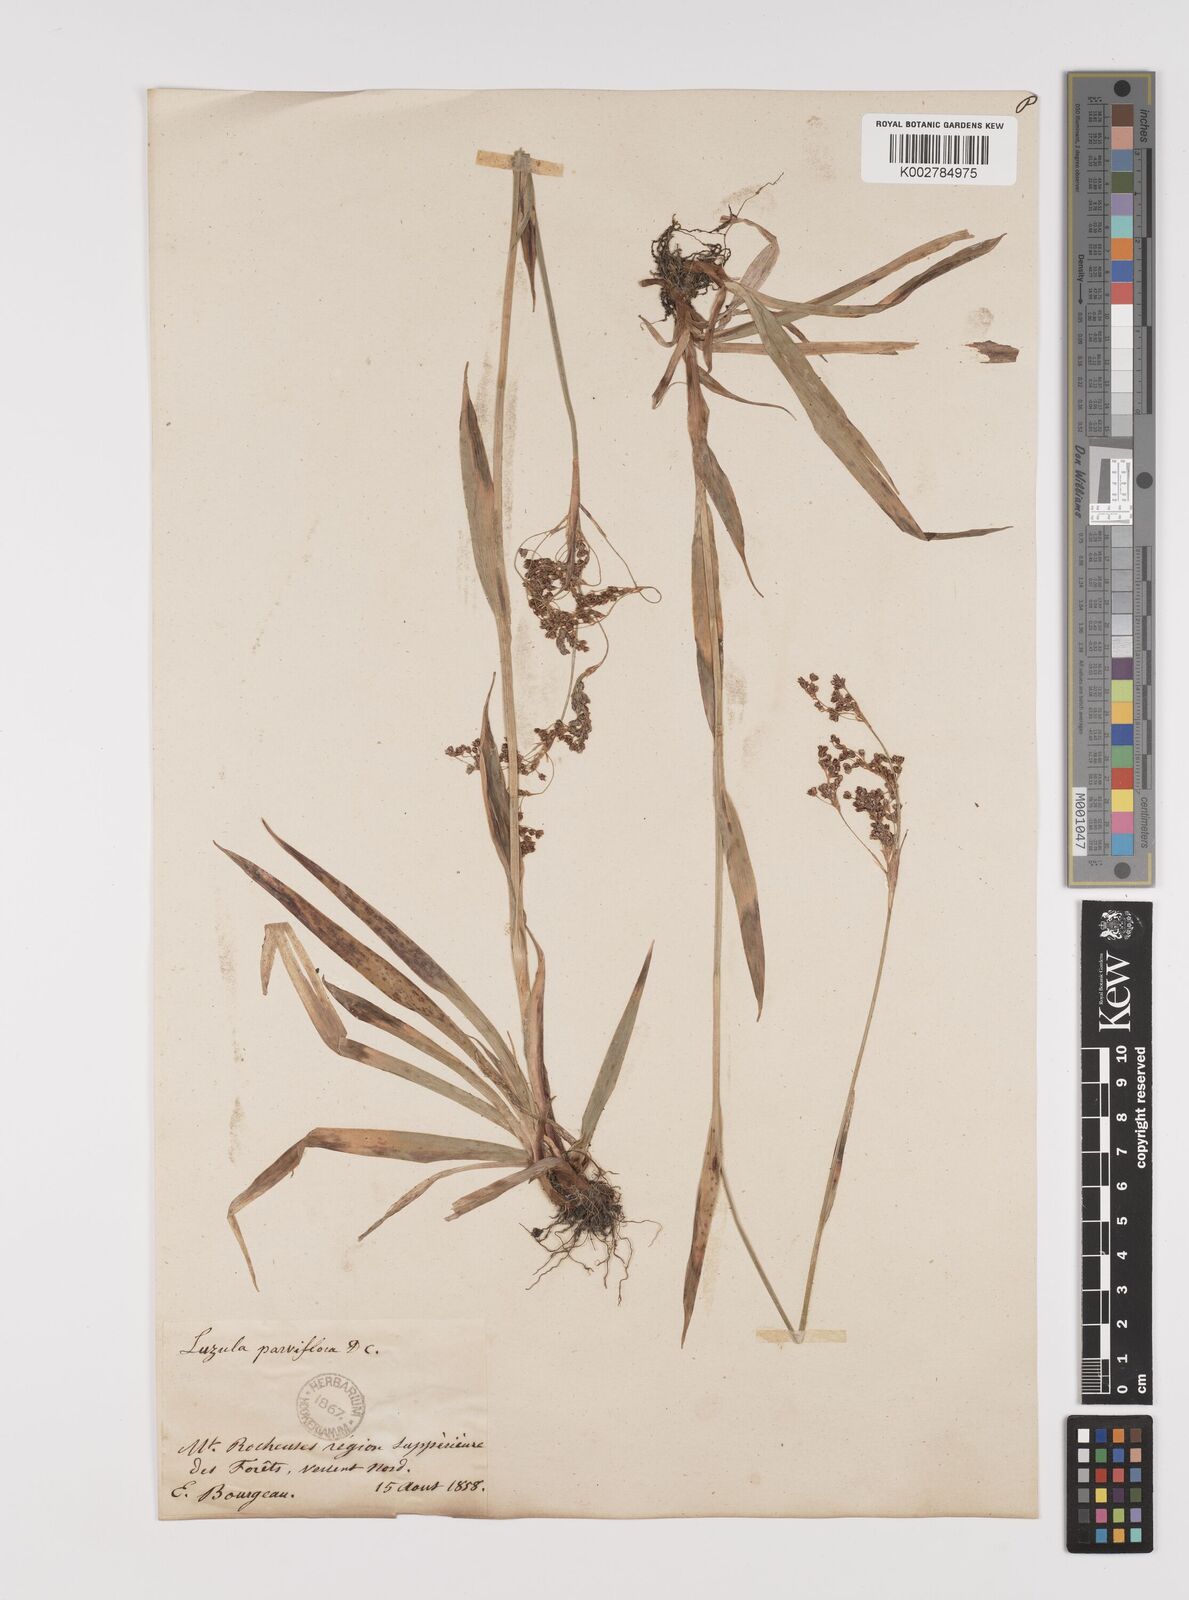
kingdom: Plantae
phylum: Tracheophyta
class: Liliopsida
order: Poales
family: Juncaceae
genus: Luzula
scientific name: Luzula parviflora
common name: Millet woodrush
